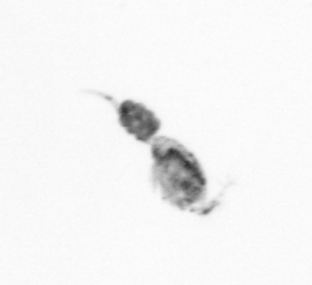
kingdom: Animalia
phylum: Arthropoda
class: Copepoda
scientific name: Copepoda
